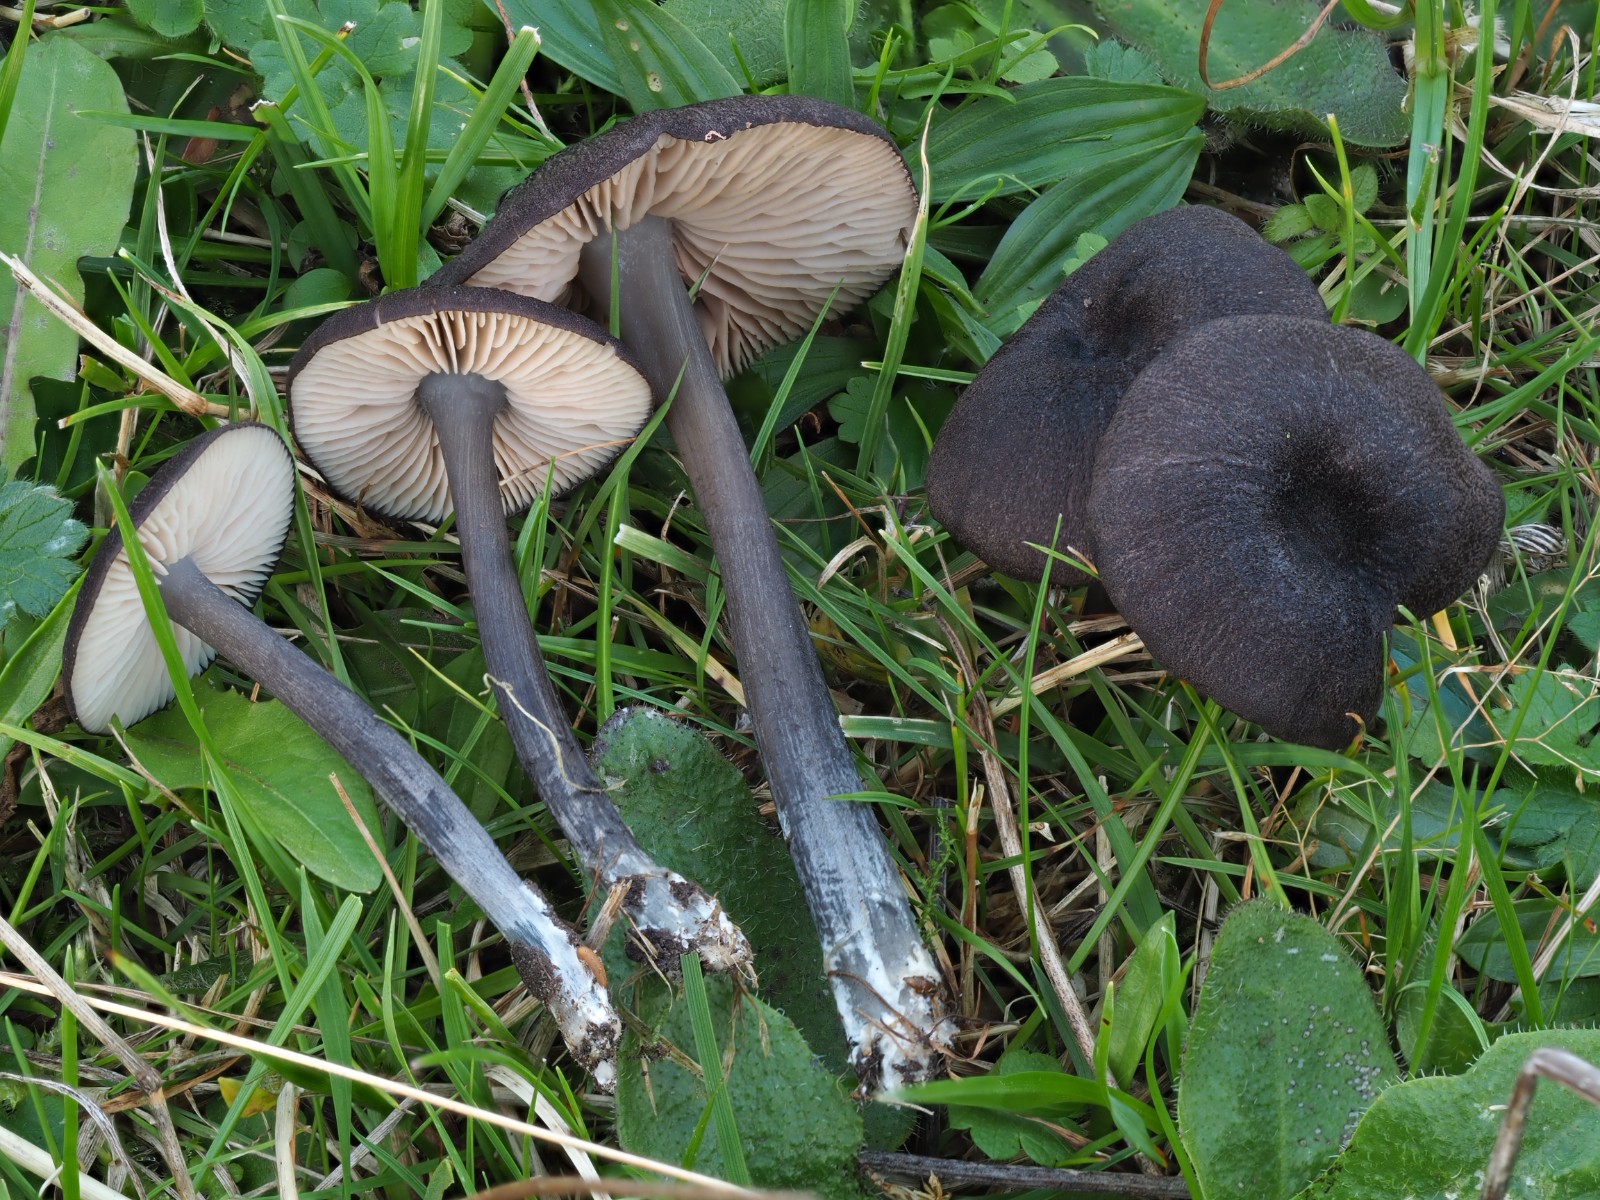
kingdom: Fungi
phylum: Basidiomycota
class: Agaricomycetes
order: Agaricales
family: Entolomataceae
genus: Entoloma
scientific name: Entoloma atrocoeruleum
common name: sortblå rødblad
